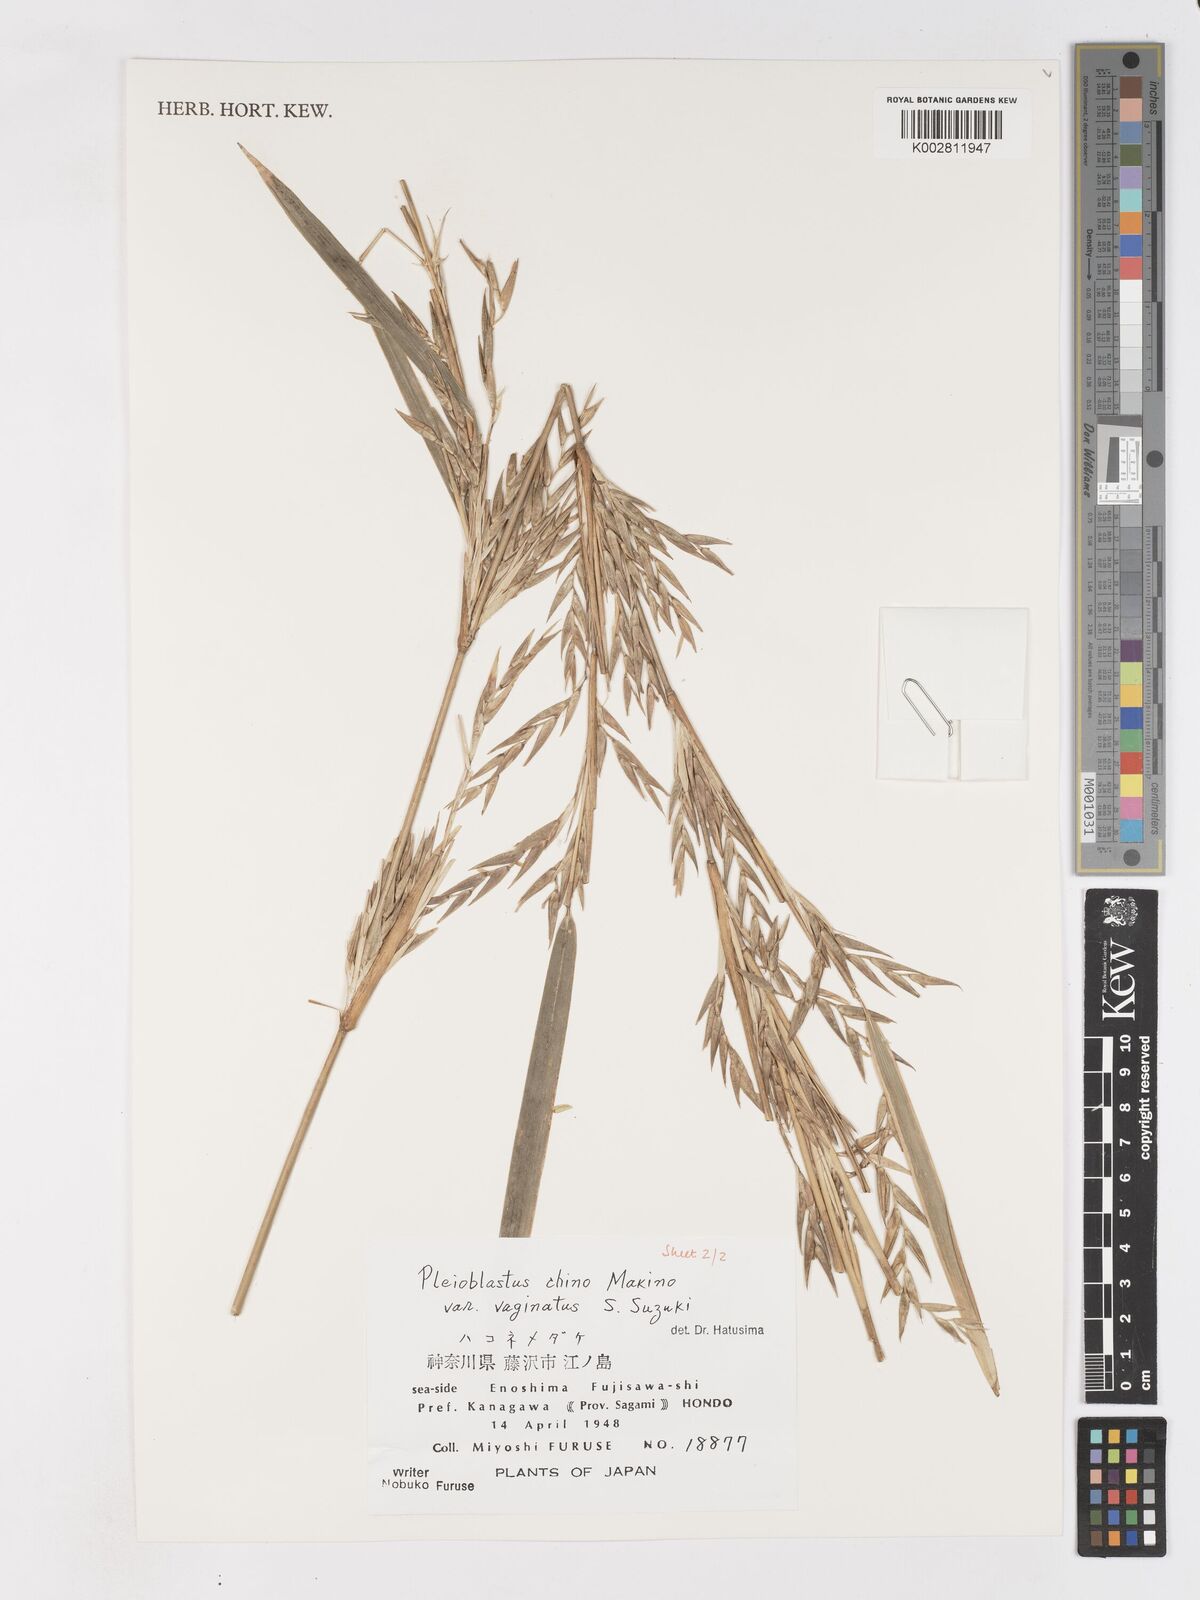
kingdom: Plantae
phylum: Tracheophyta
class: Liliopsida
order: Poales
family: Poaceae
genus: Pleioblastus
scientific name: Pleioblastus argenteostriatus
